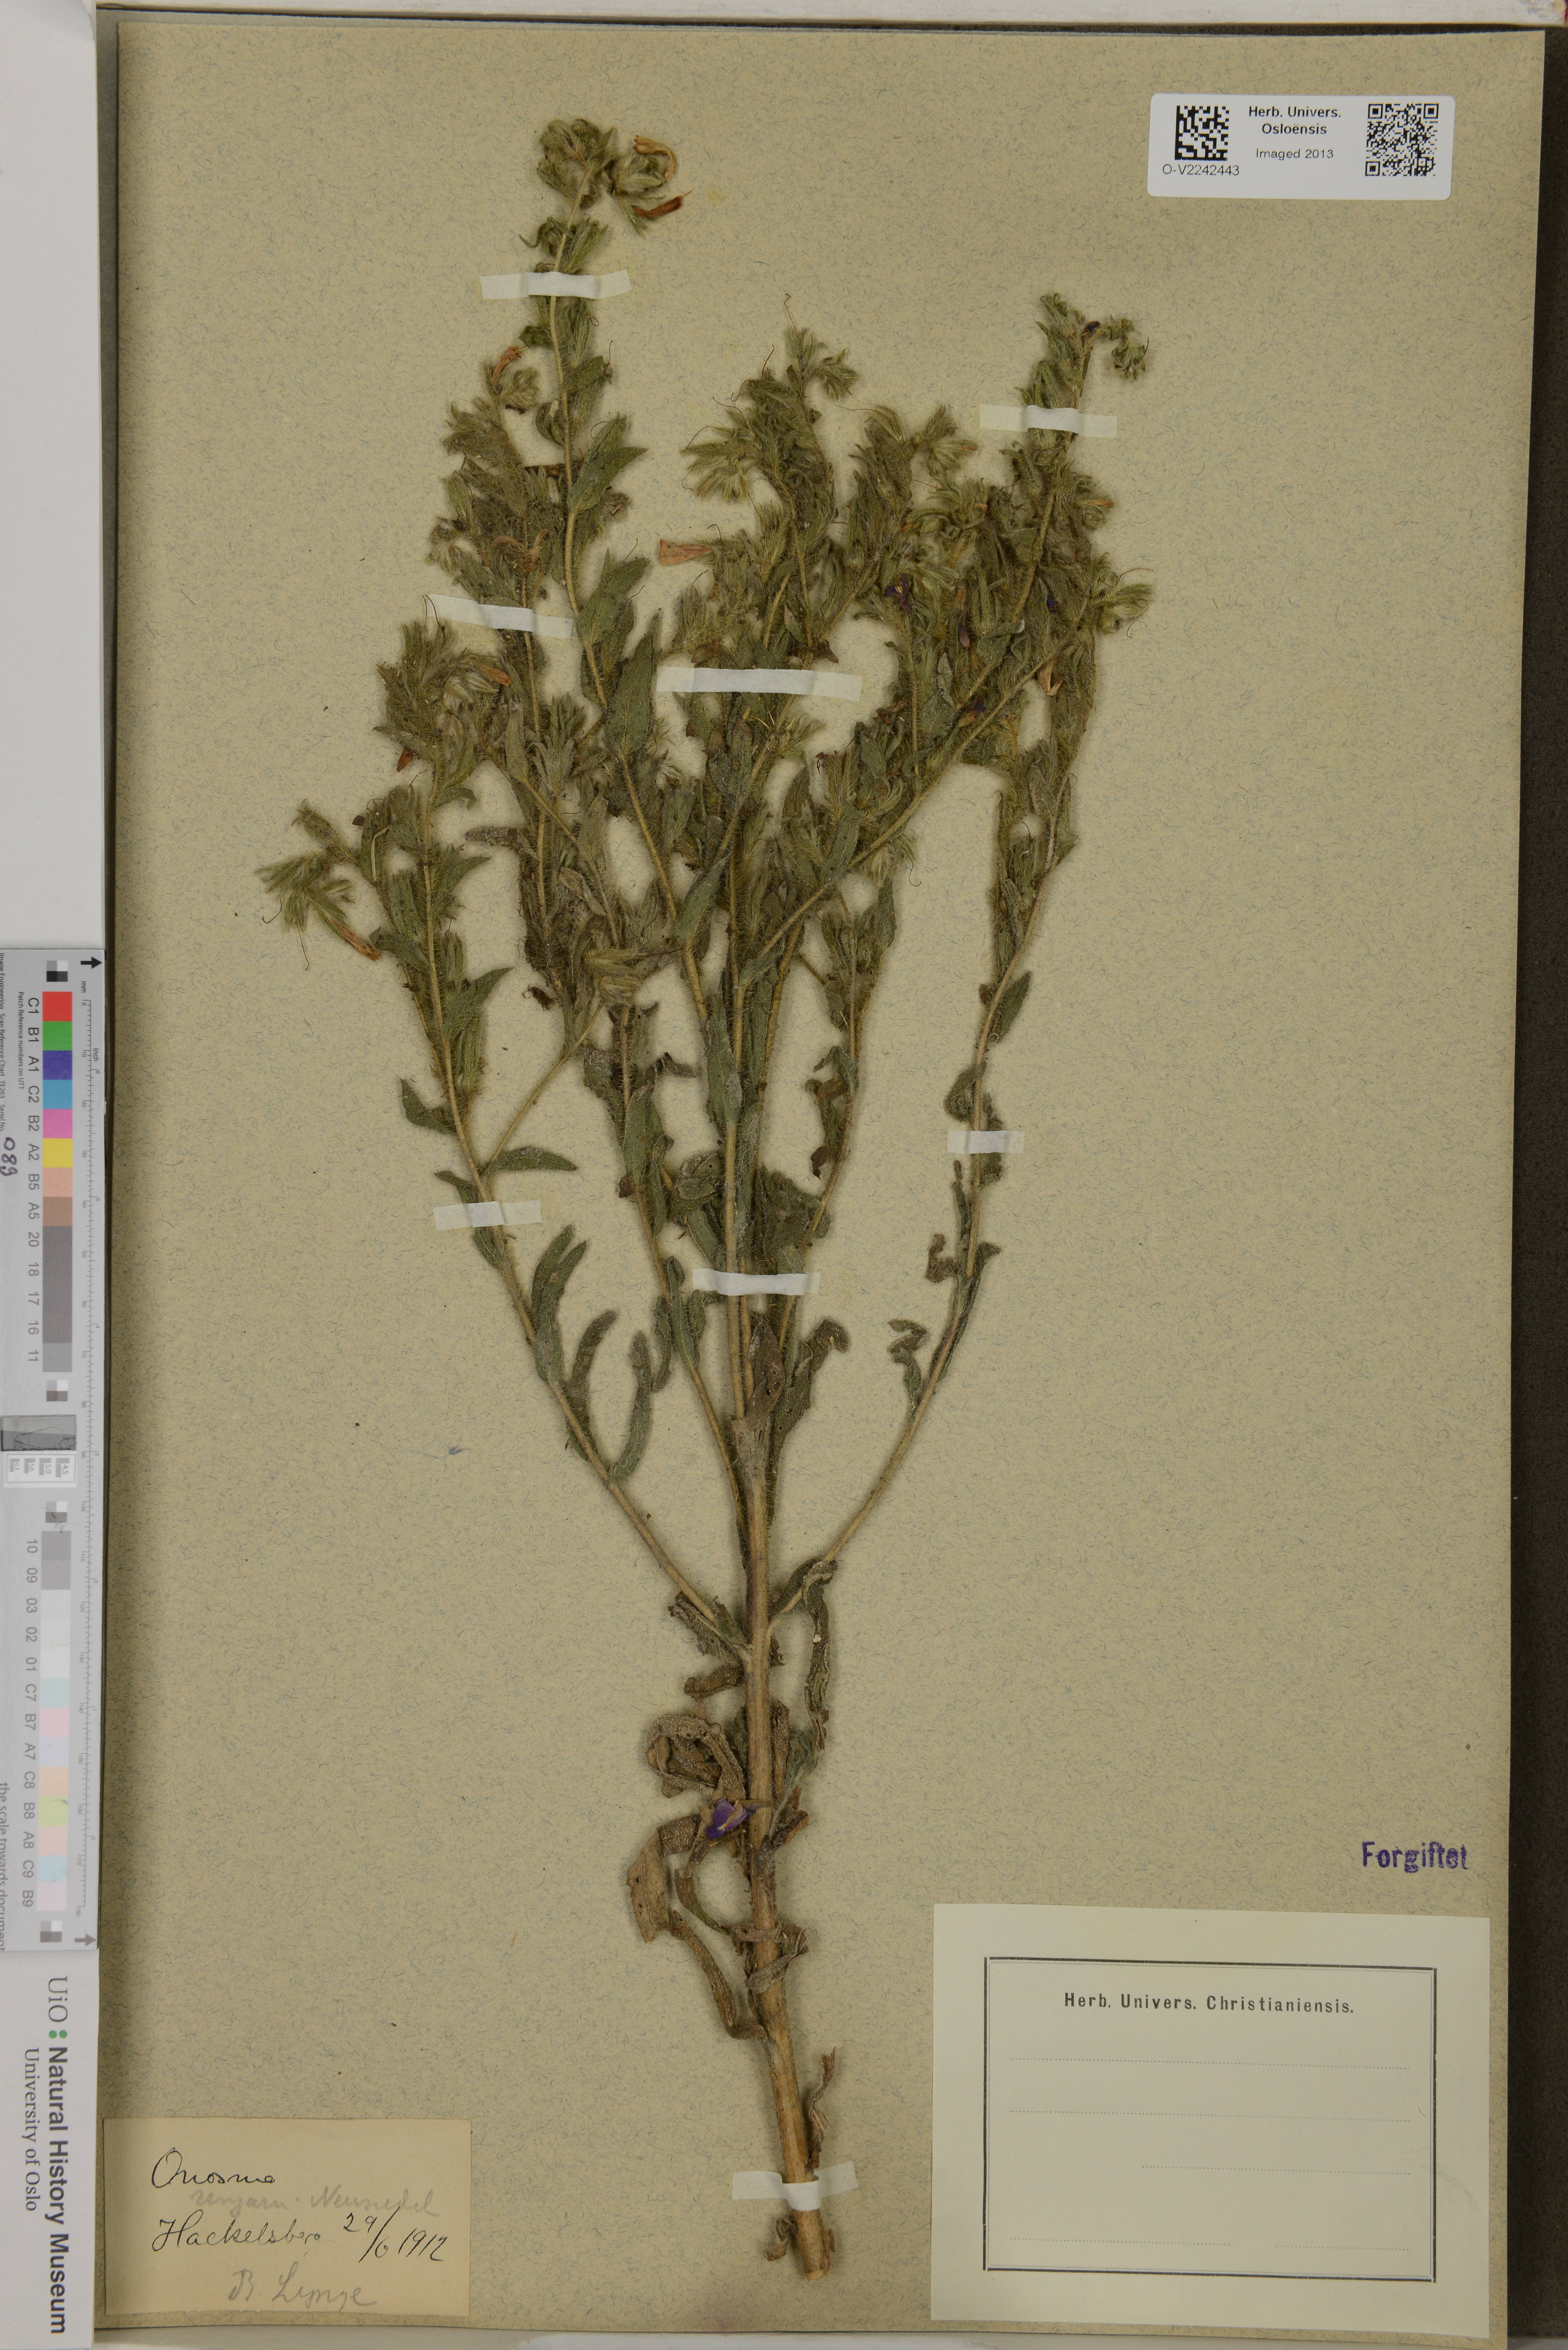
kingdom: Plantae
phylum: Tracheophyta
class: Magnoliopsida
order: Boraginales
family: Boraginaceae
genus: Onosma
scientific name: Onosma
